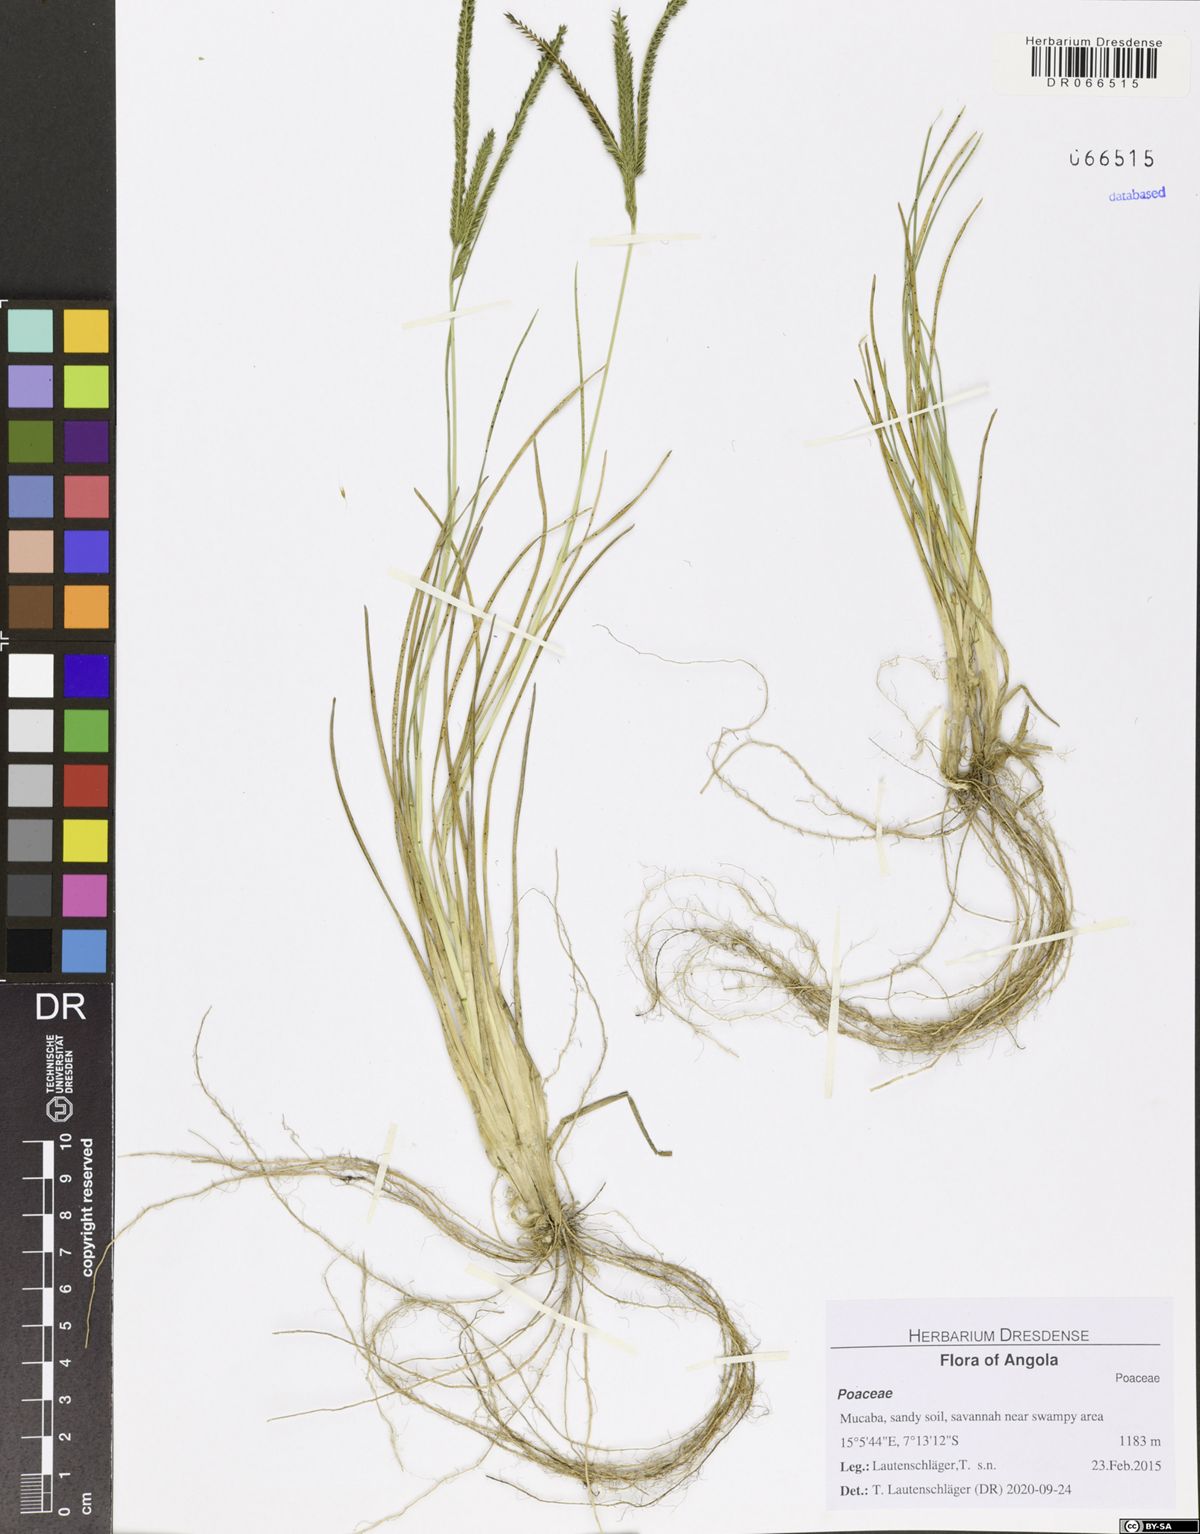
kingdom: Plantae
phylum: Tracheophyta
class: Liliopsida
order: Poales
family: Poaceae
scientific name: Poaceae
